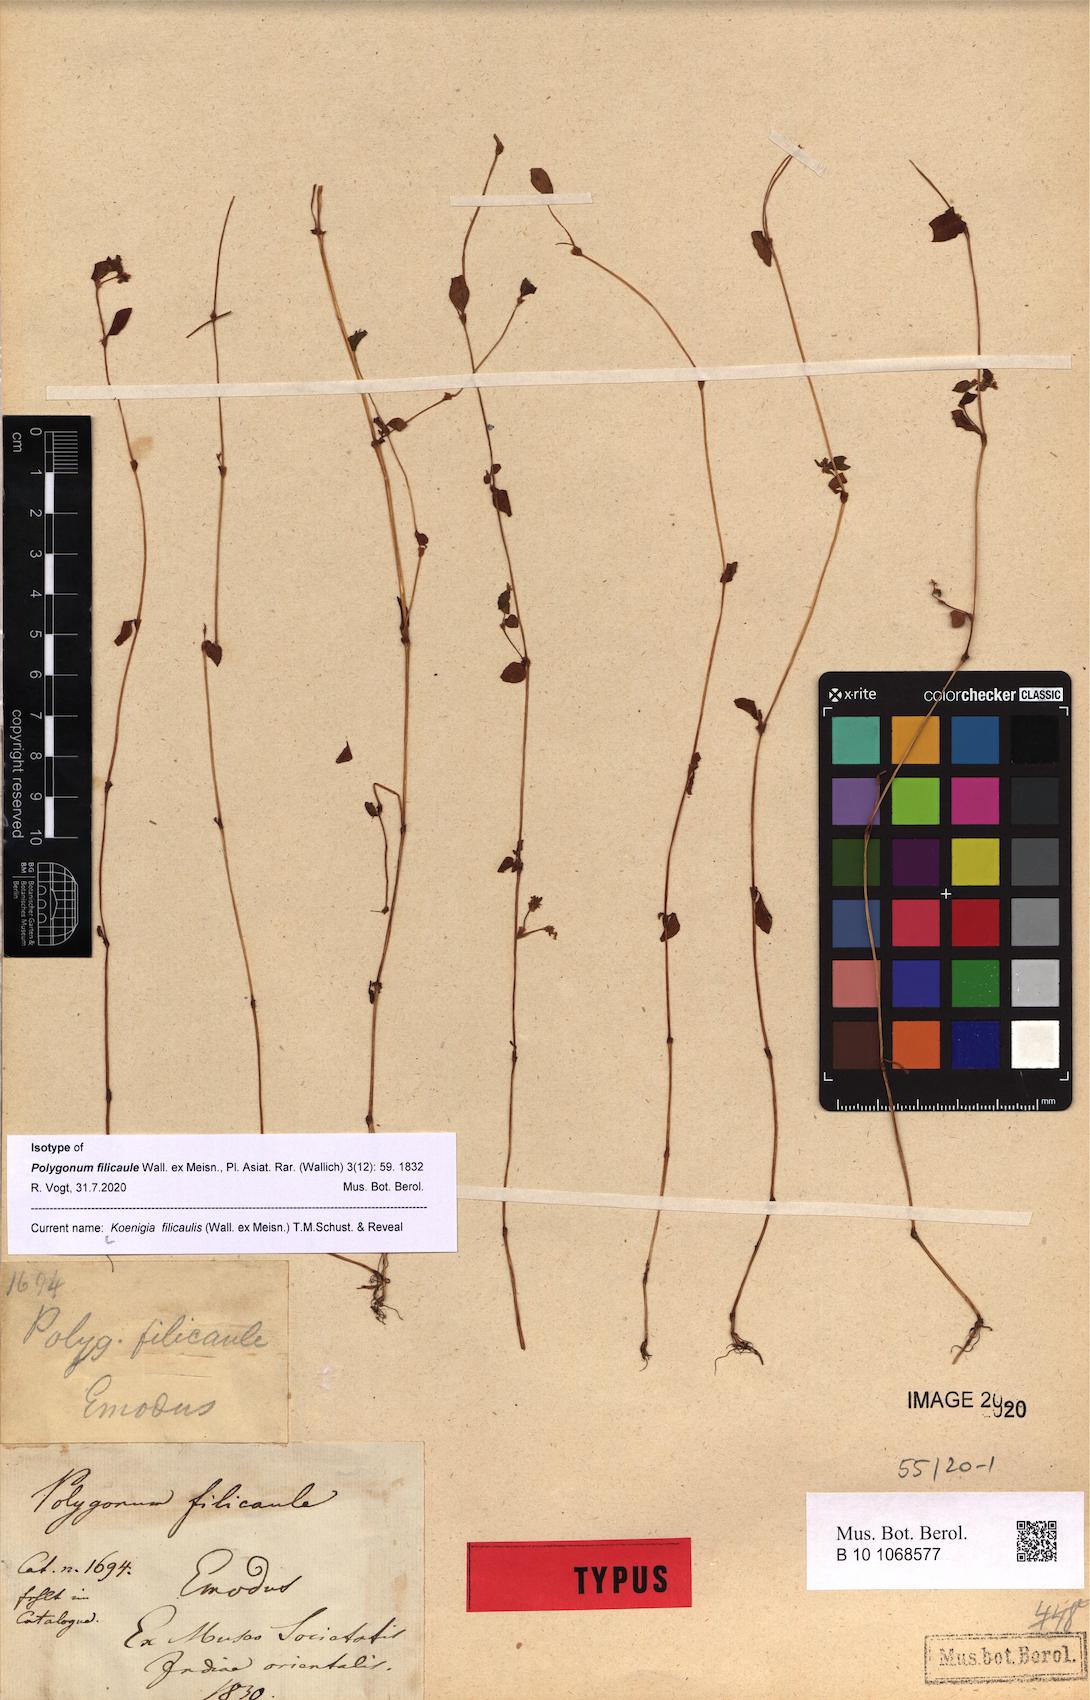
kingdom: Plantae
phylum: Tracheophyta
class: Magnoliopsida
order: Caryophyllales
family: Polygonaceae
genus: Koenigia
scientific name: Koenigia filicaulis
